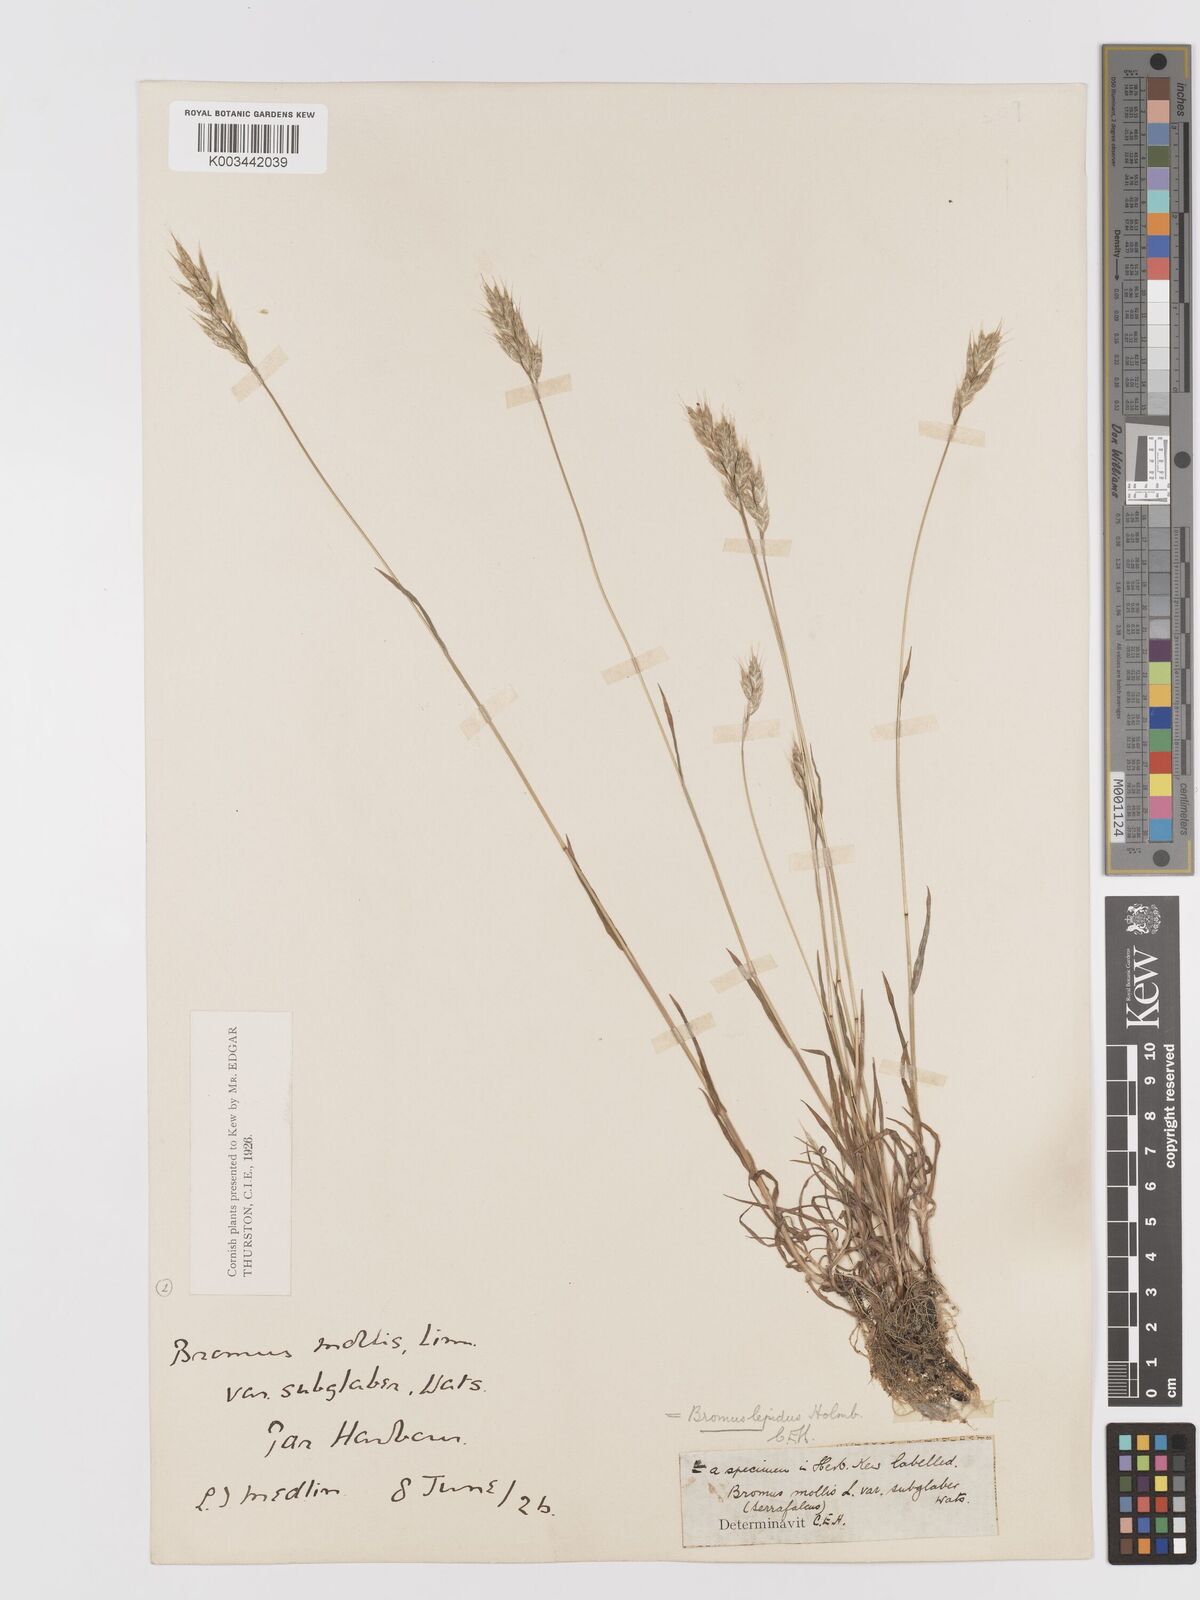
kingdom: Plantae
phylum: Tracheophyta
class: Liliopsida
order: Poales
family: Poaceae
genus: Bromus
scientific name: Bromus lepidus
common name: Slender soft-brome
